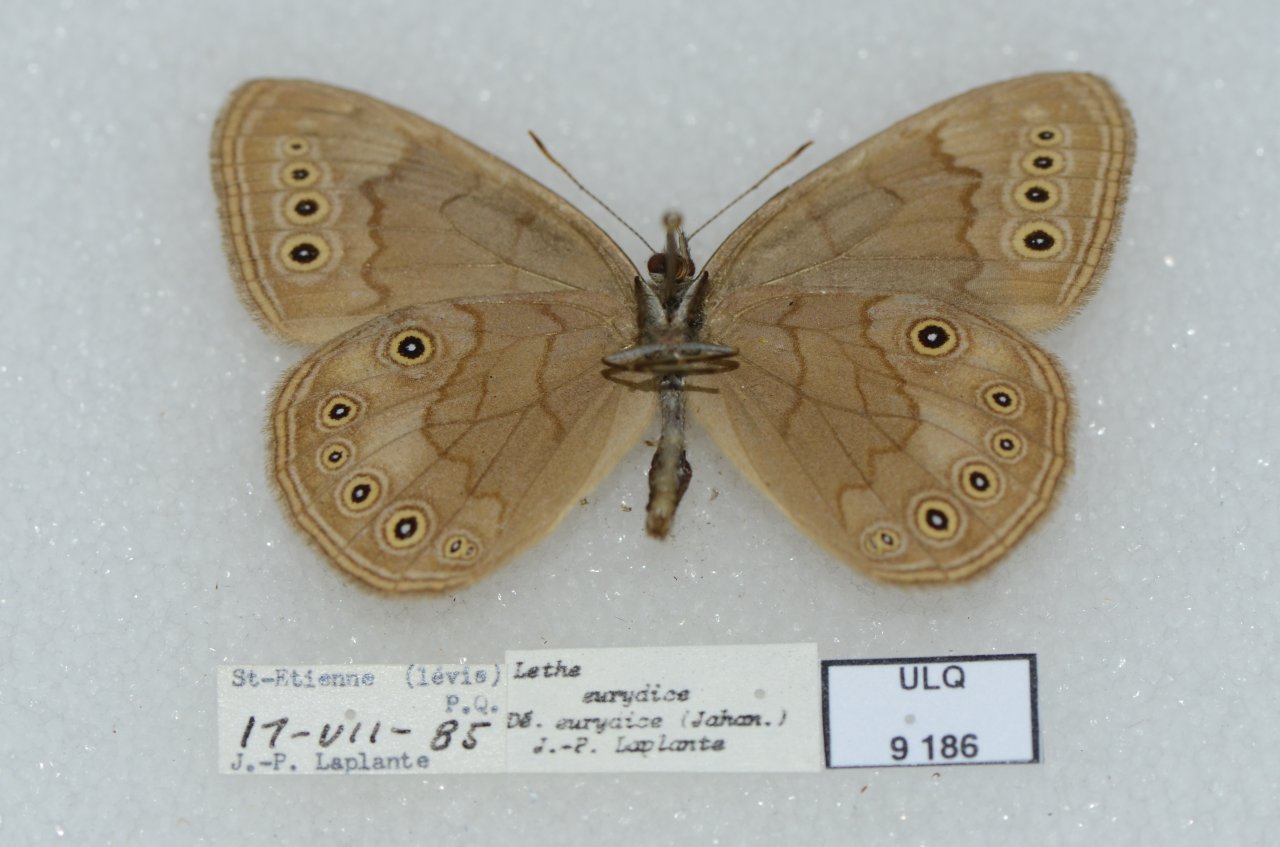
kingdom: Animalia
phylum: Arthropoda
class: Insecta
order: Lepidoptera
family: Nymphalidae
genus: Lethe
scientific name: Lethe eurydice
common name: Eyed Brown
